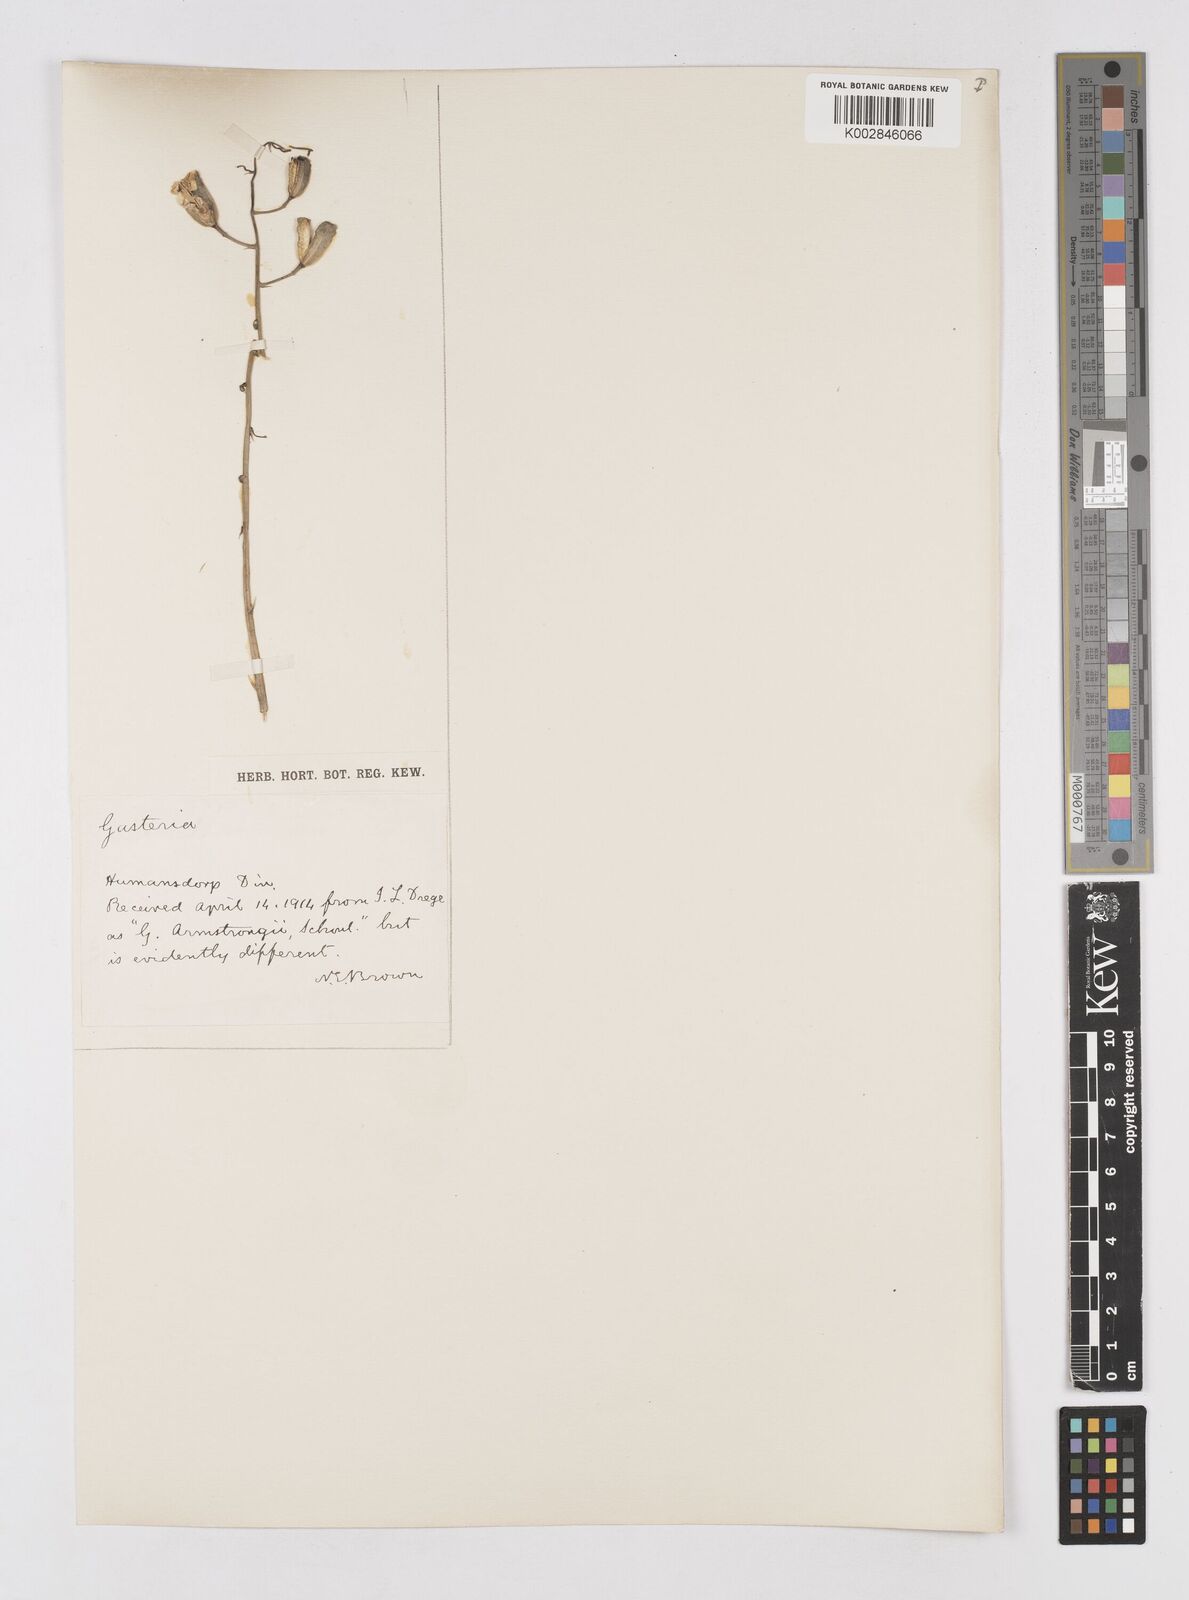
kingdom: Plantae
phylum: Tracheophyta
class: Liliopsida
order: Asparagales
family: Asphodelaceae
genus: Gasteria
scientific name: Gasteria nitida
